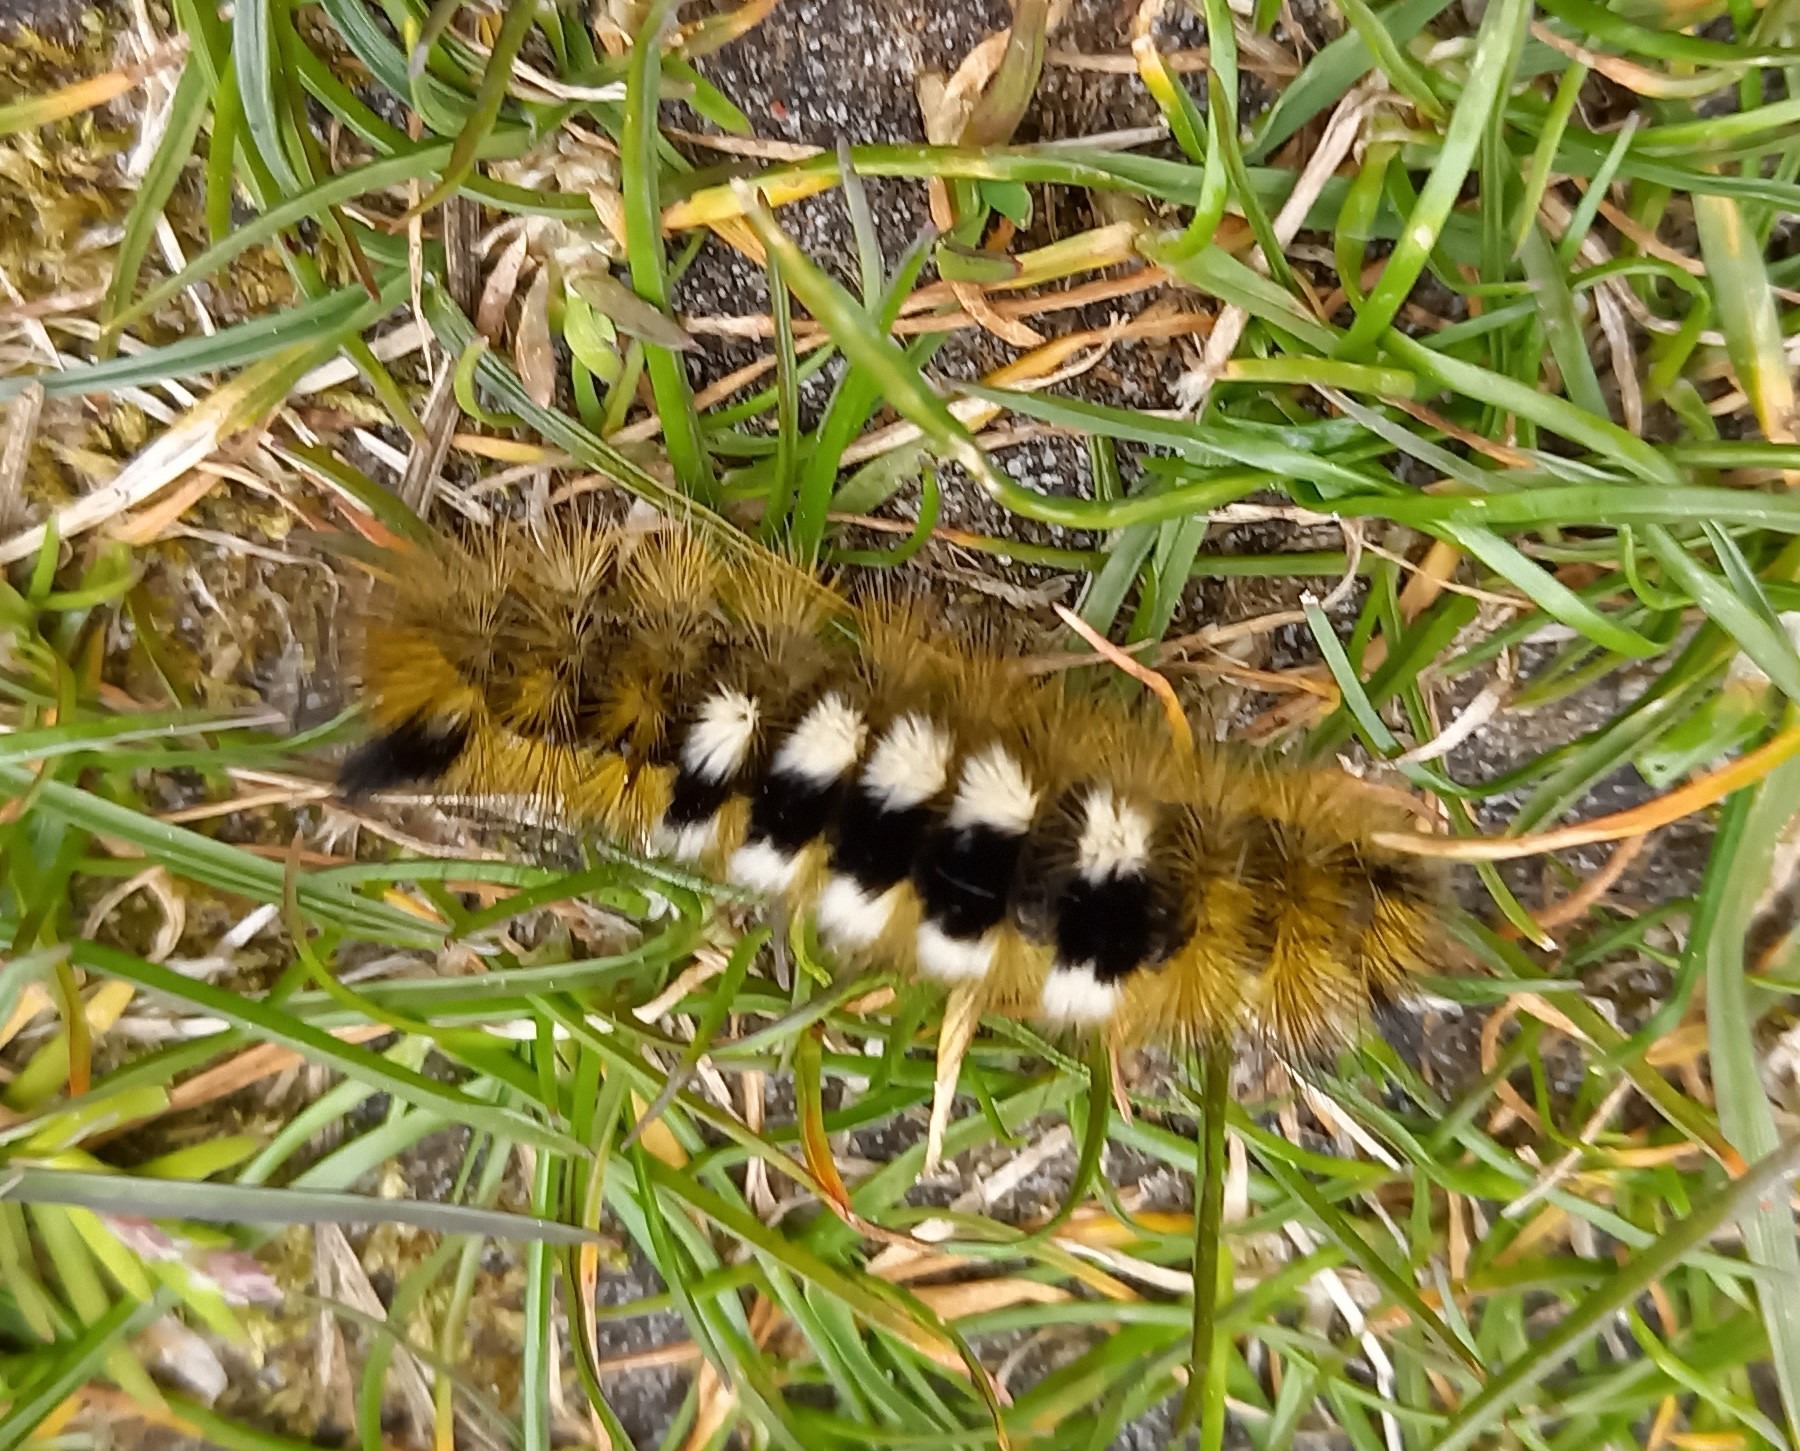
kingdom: Animalia
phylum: Arthropoda
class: Insecta
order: Lepidoptera
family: Erebidae
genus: Calliteara
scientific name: Calliteara Dicallomera fascelina
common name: Hedenonne
